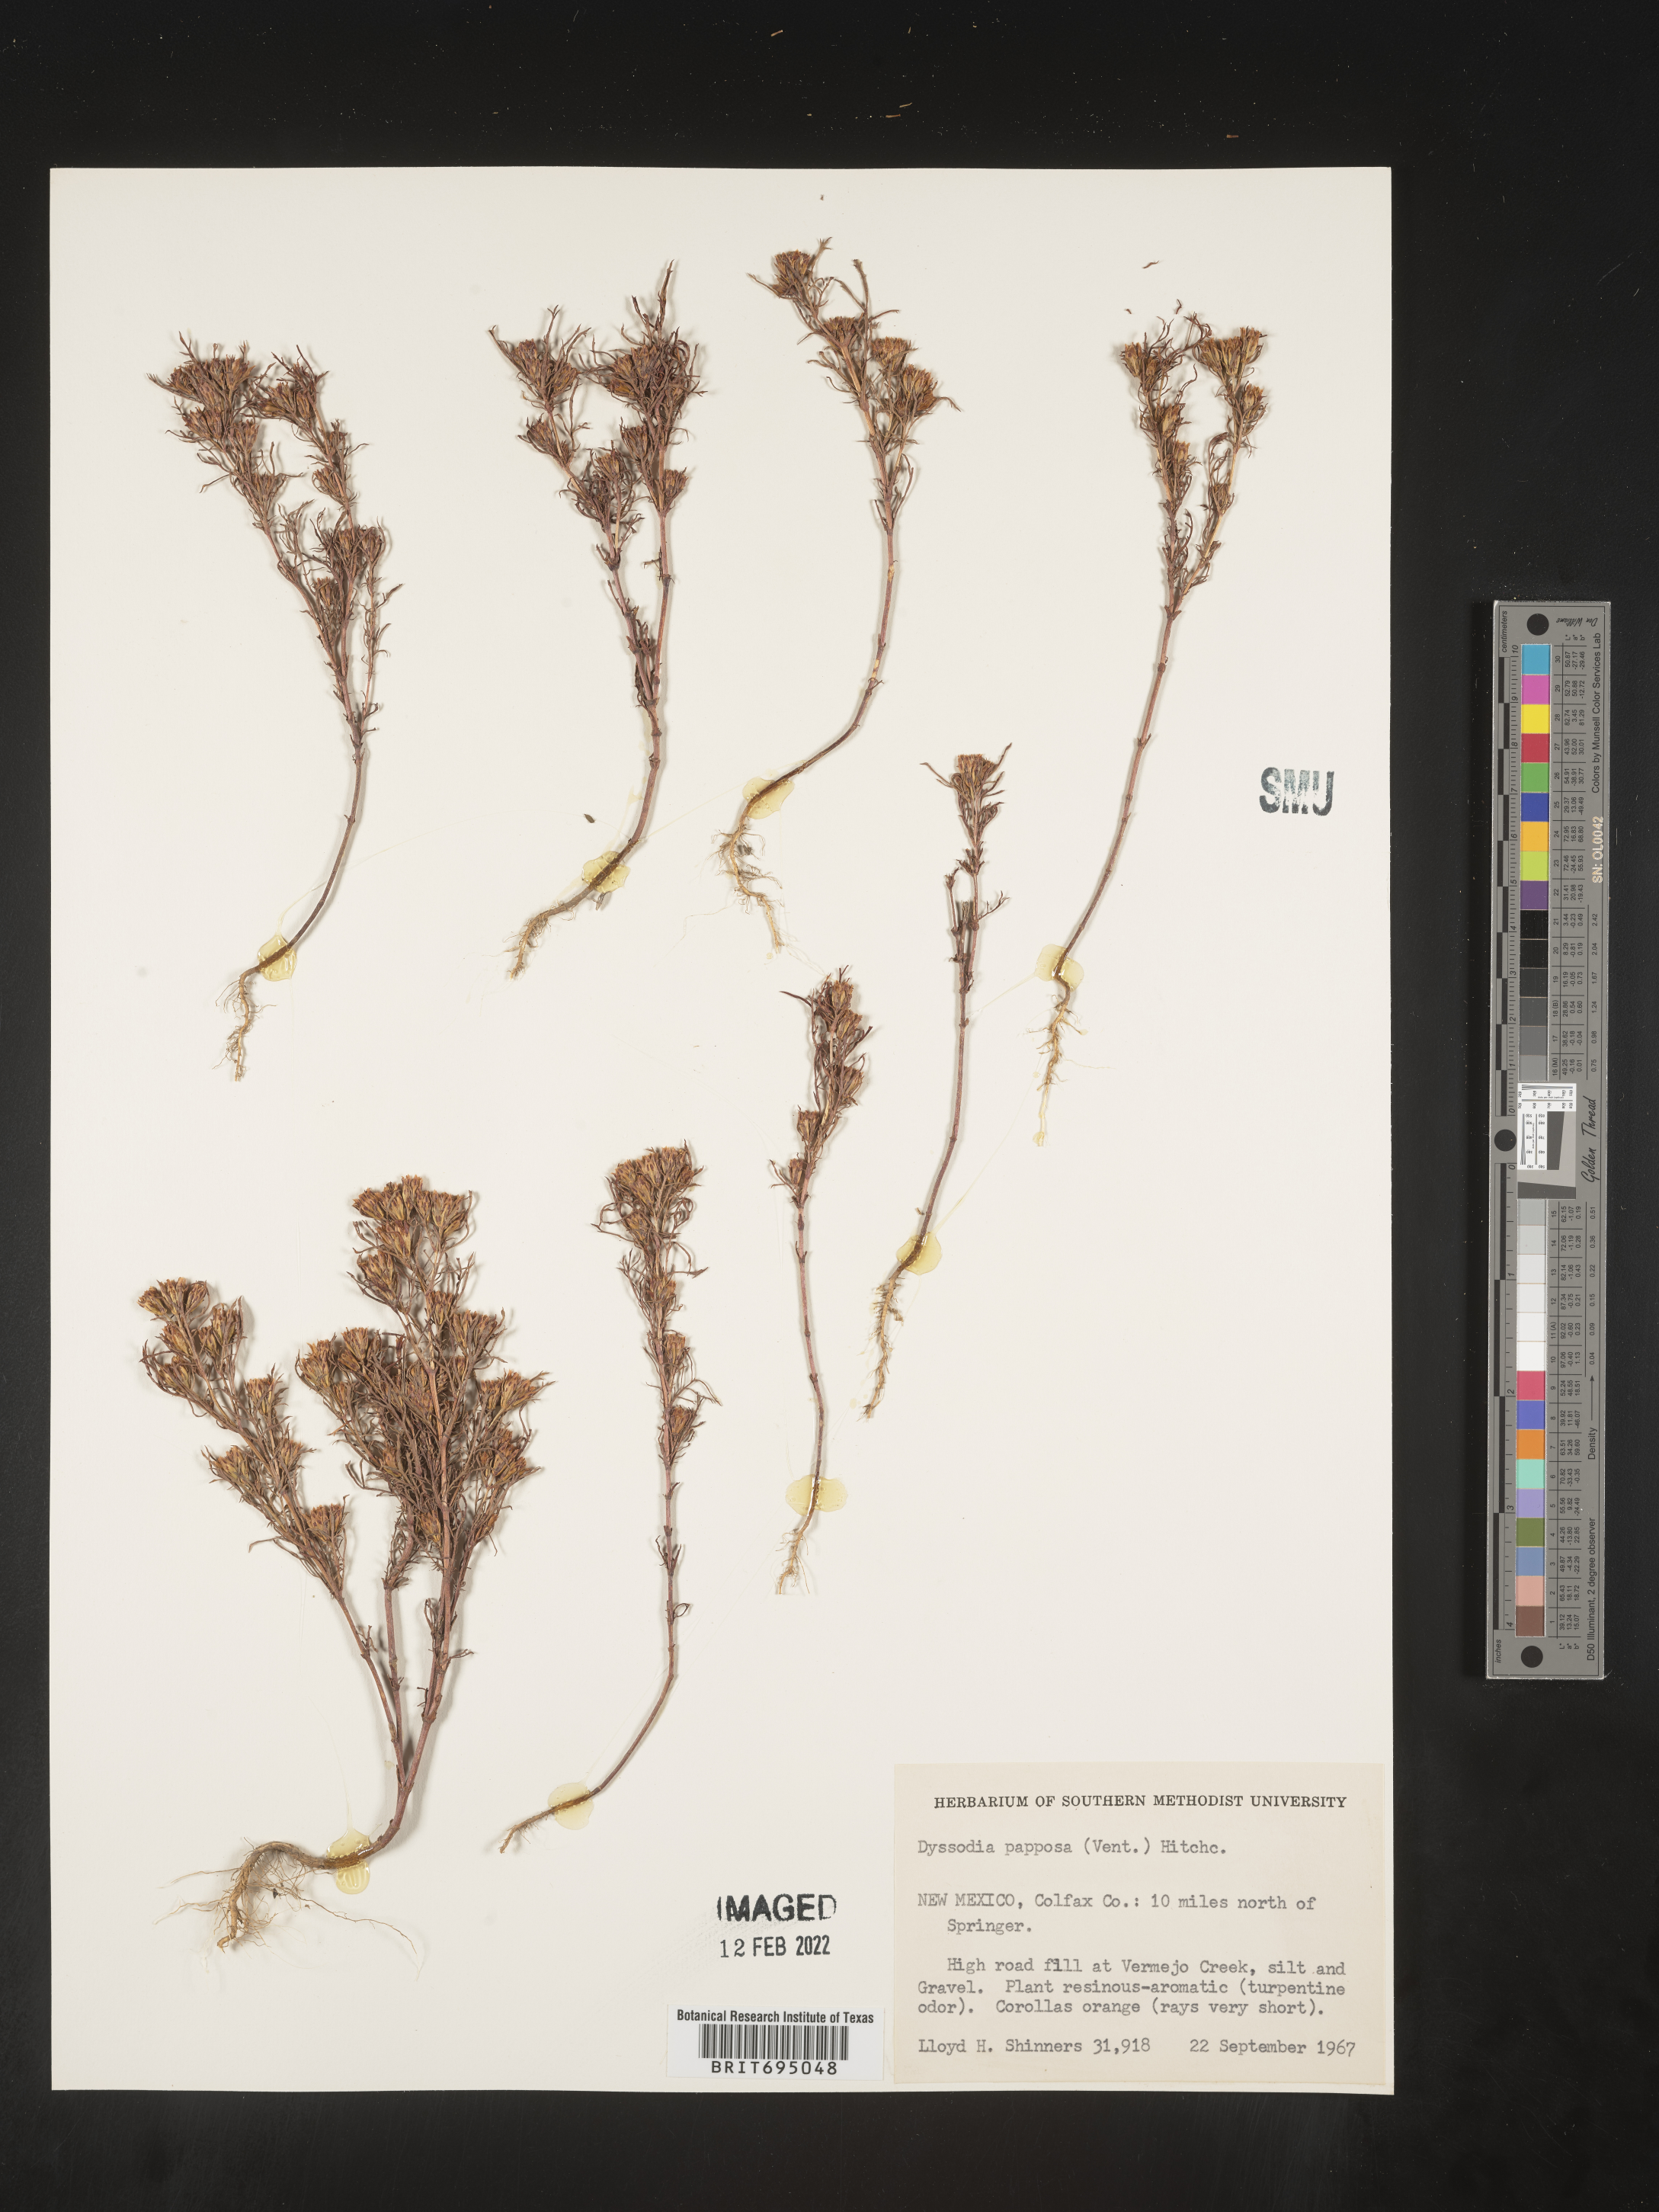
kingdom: Plantae
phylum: Tracheophyta
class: Magnoliopsida
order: Asterales
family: Asteraceae
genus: Dyssodia
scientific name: Dyssodia papposa
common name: Dogweed
